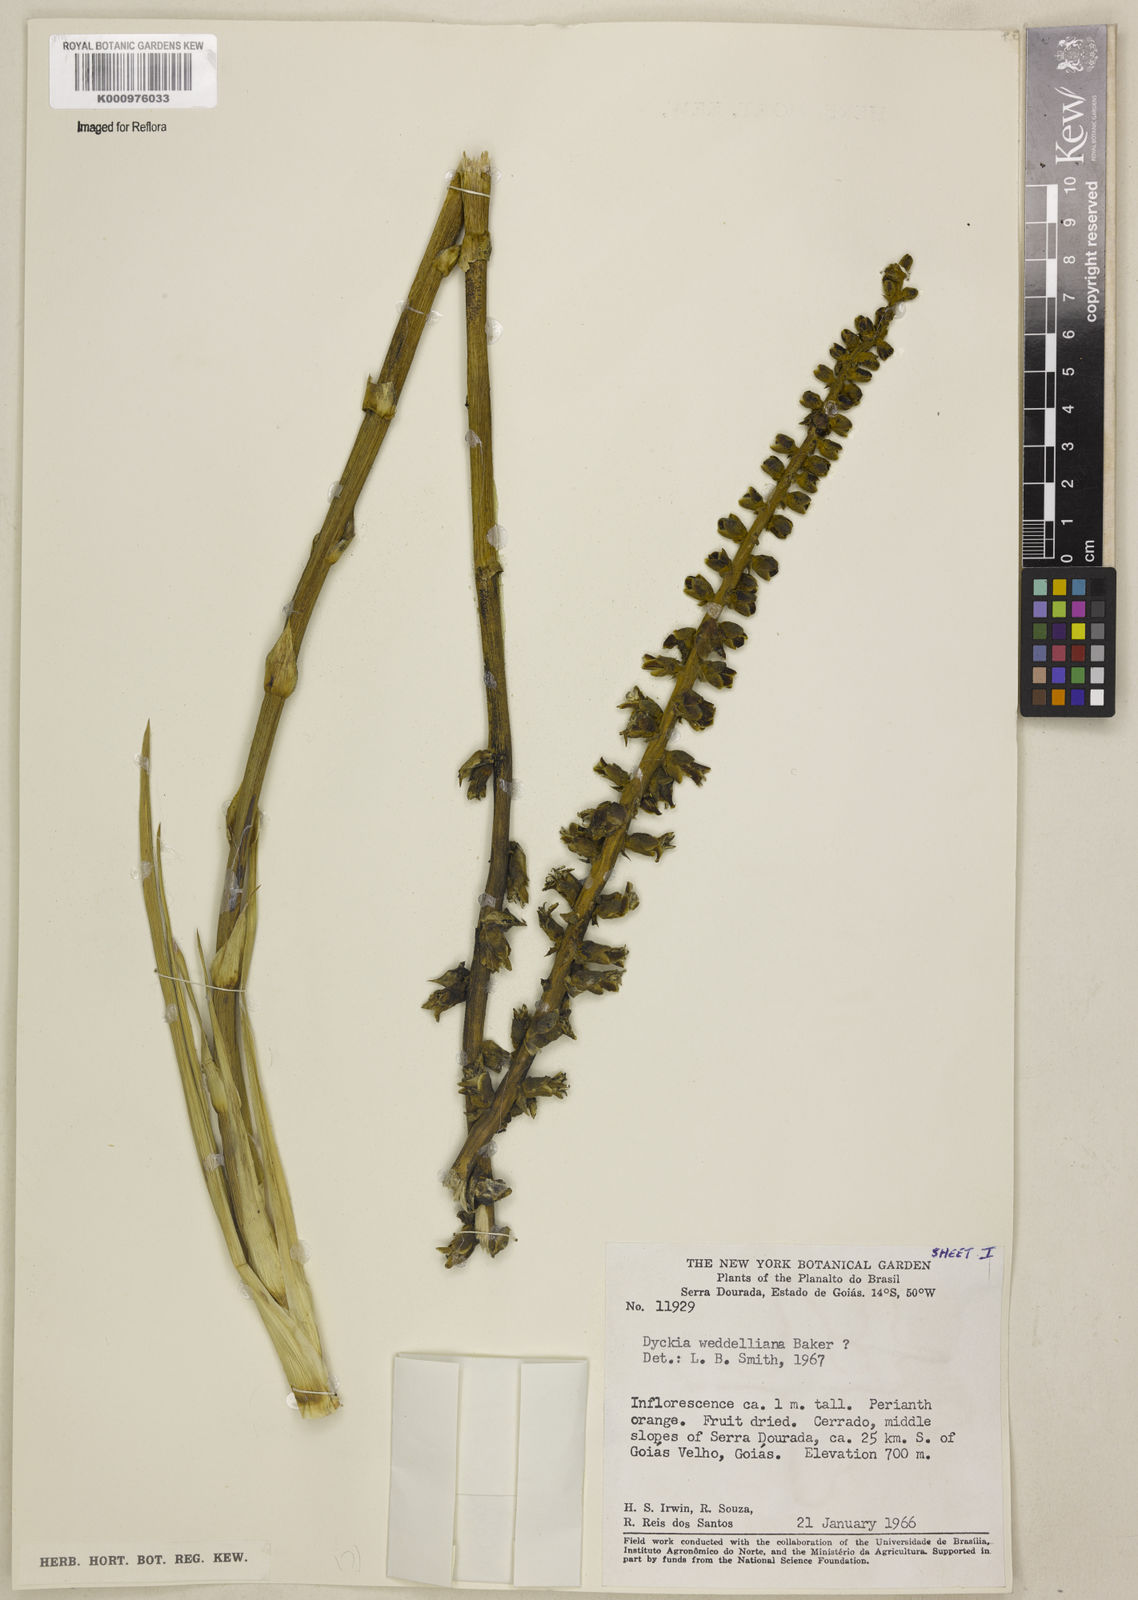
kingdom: Plantae
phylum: Tracheophyta
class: Liliopsida
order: Poales
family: Bromeliaceae
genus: Dyckia
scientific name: Dyckia weddelliana
